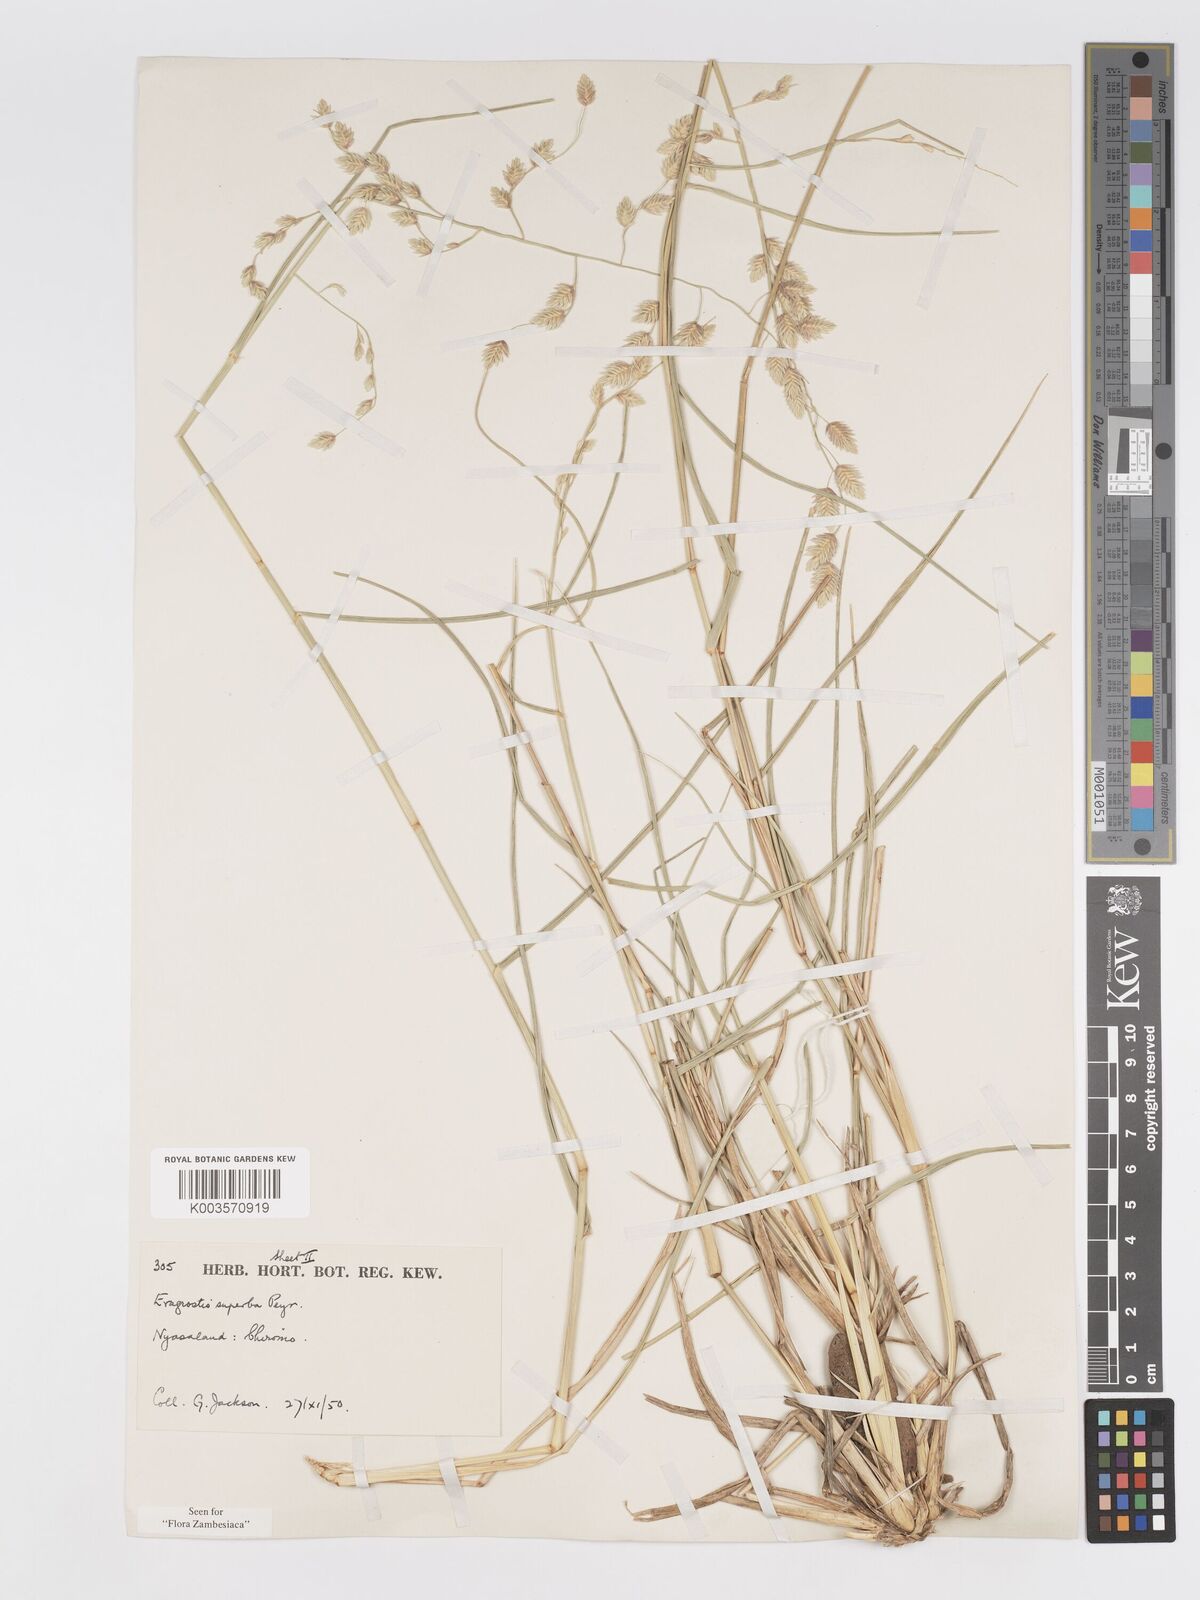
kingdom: Plantae
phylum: Tracheophyta
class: Liliopsida
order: Poales
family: Poaceae
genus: Eragrostis
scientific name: Eragrostis superba
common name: Wilman lovegrass
